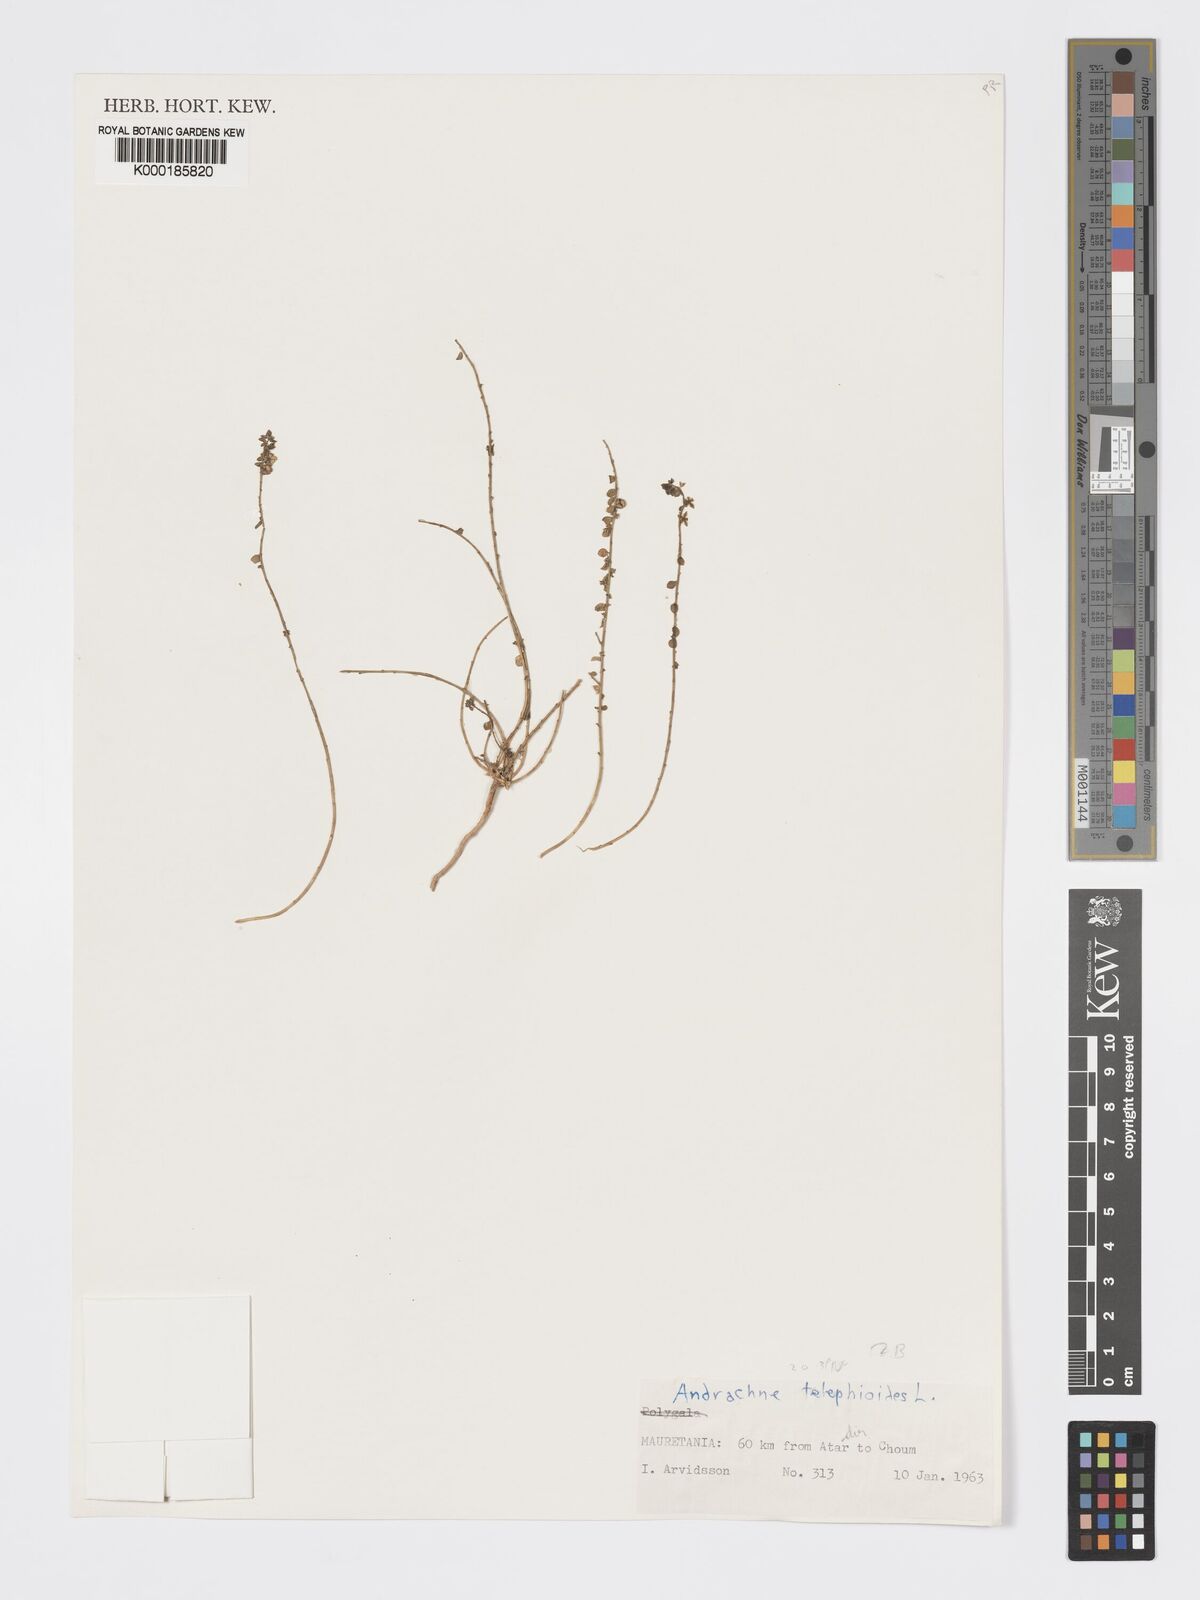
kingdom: Plantae
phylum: Tracheophyta
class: Magnoliopsida
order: Malpighiales
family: Phyllanthaceae
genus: Andrachne
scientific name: Andrachne telephioides
